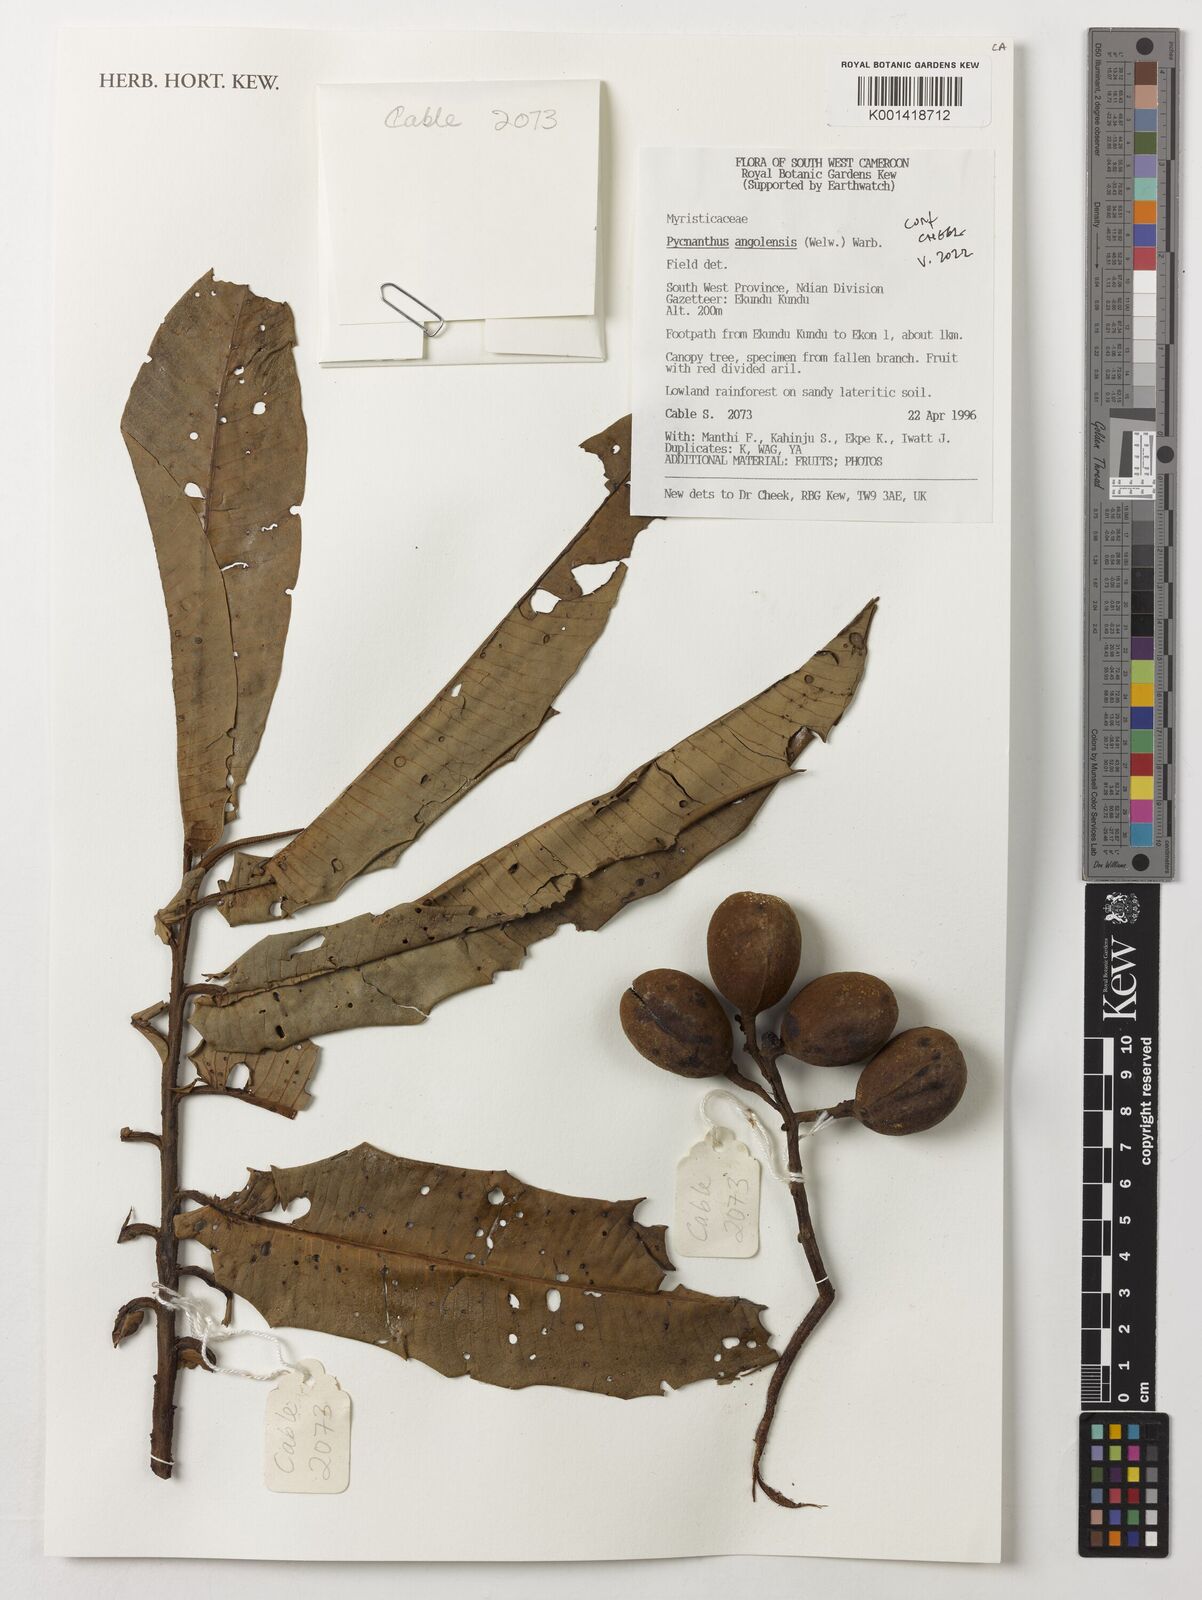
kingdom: Plantae
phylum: Tracheophyta
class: Magnoliopsida
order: Magnoliales
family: Myristicaceae
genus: Pycnanthus
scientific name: Pycnanthus angolensis
